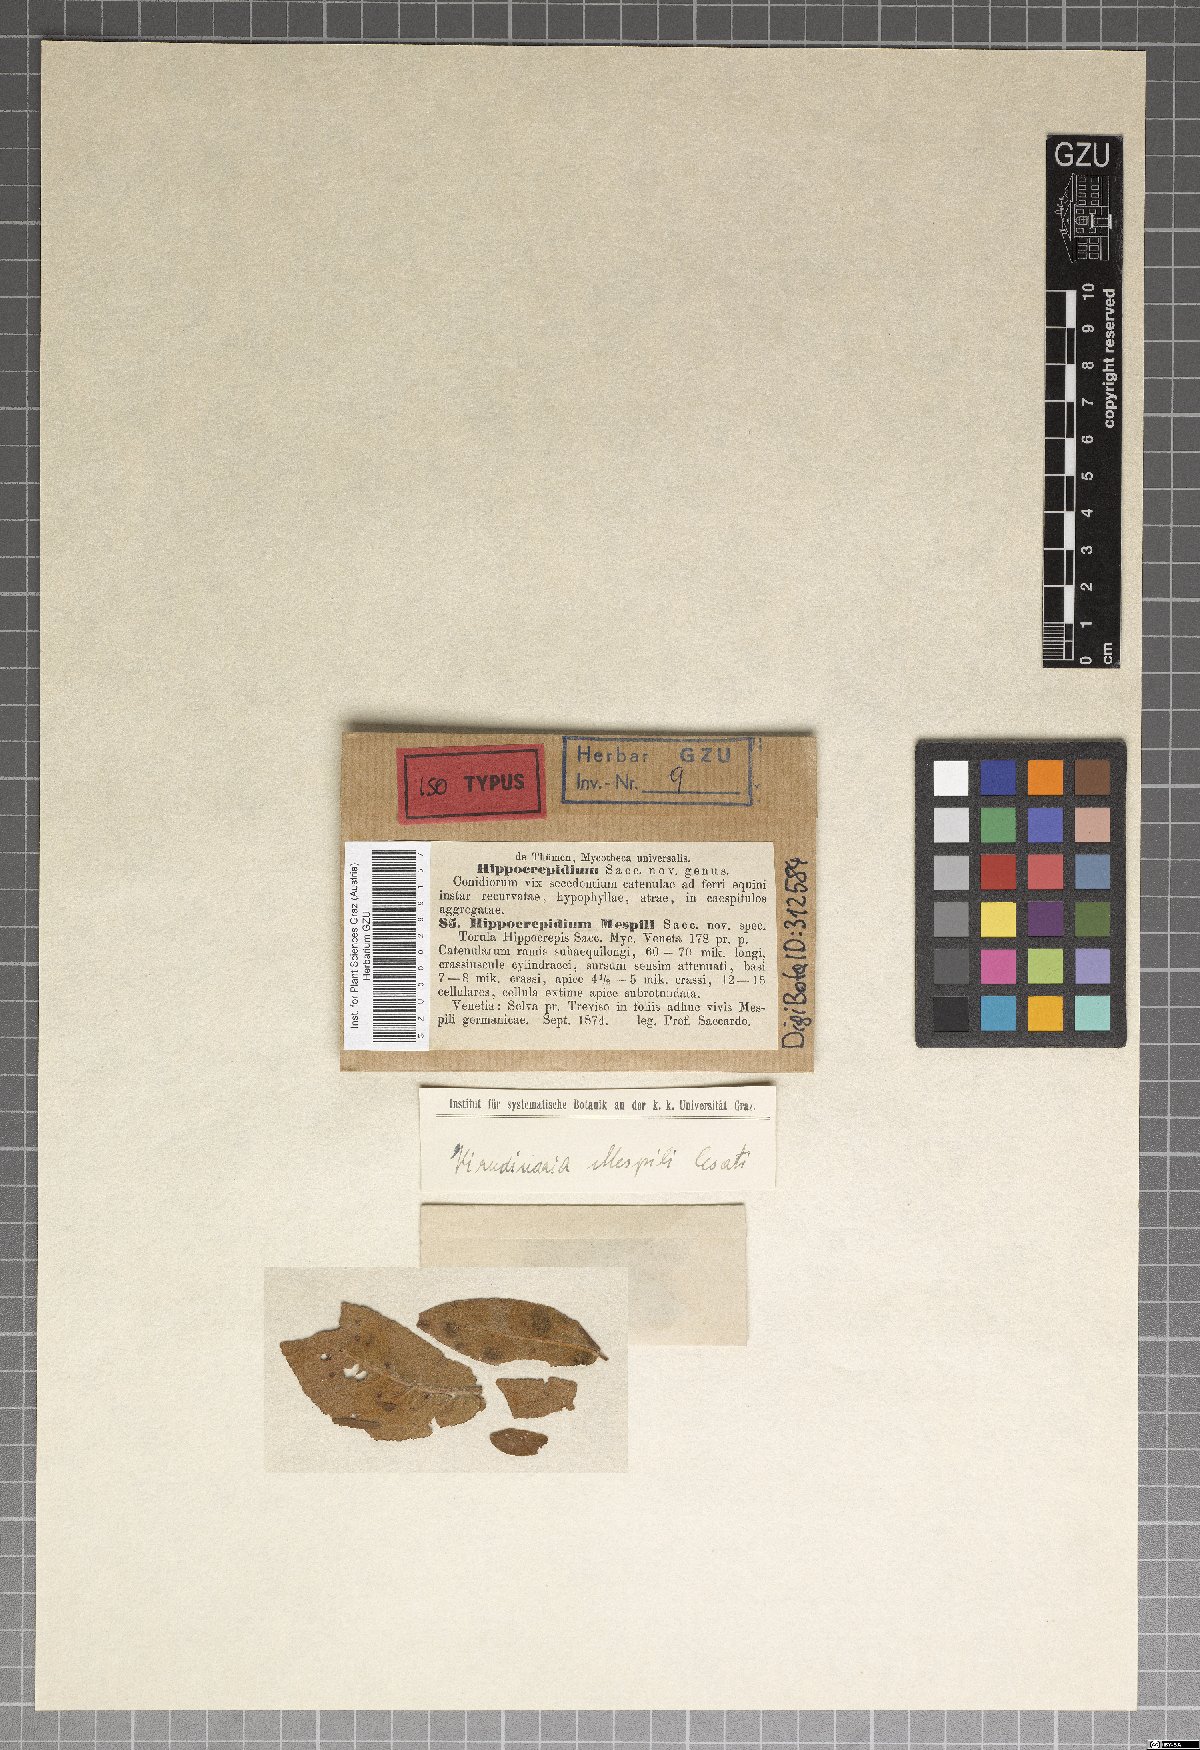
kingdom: Fungi
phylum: Ascomycota
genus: Hirudinaria
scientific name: Hirudinaria
